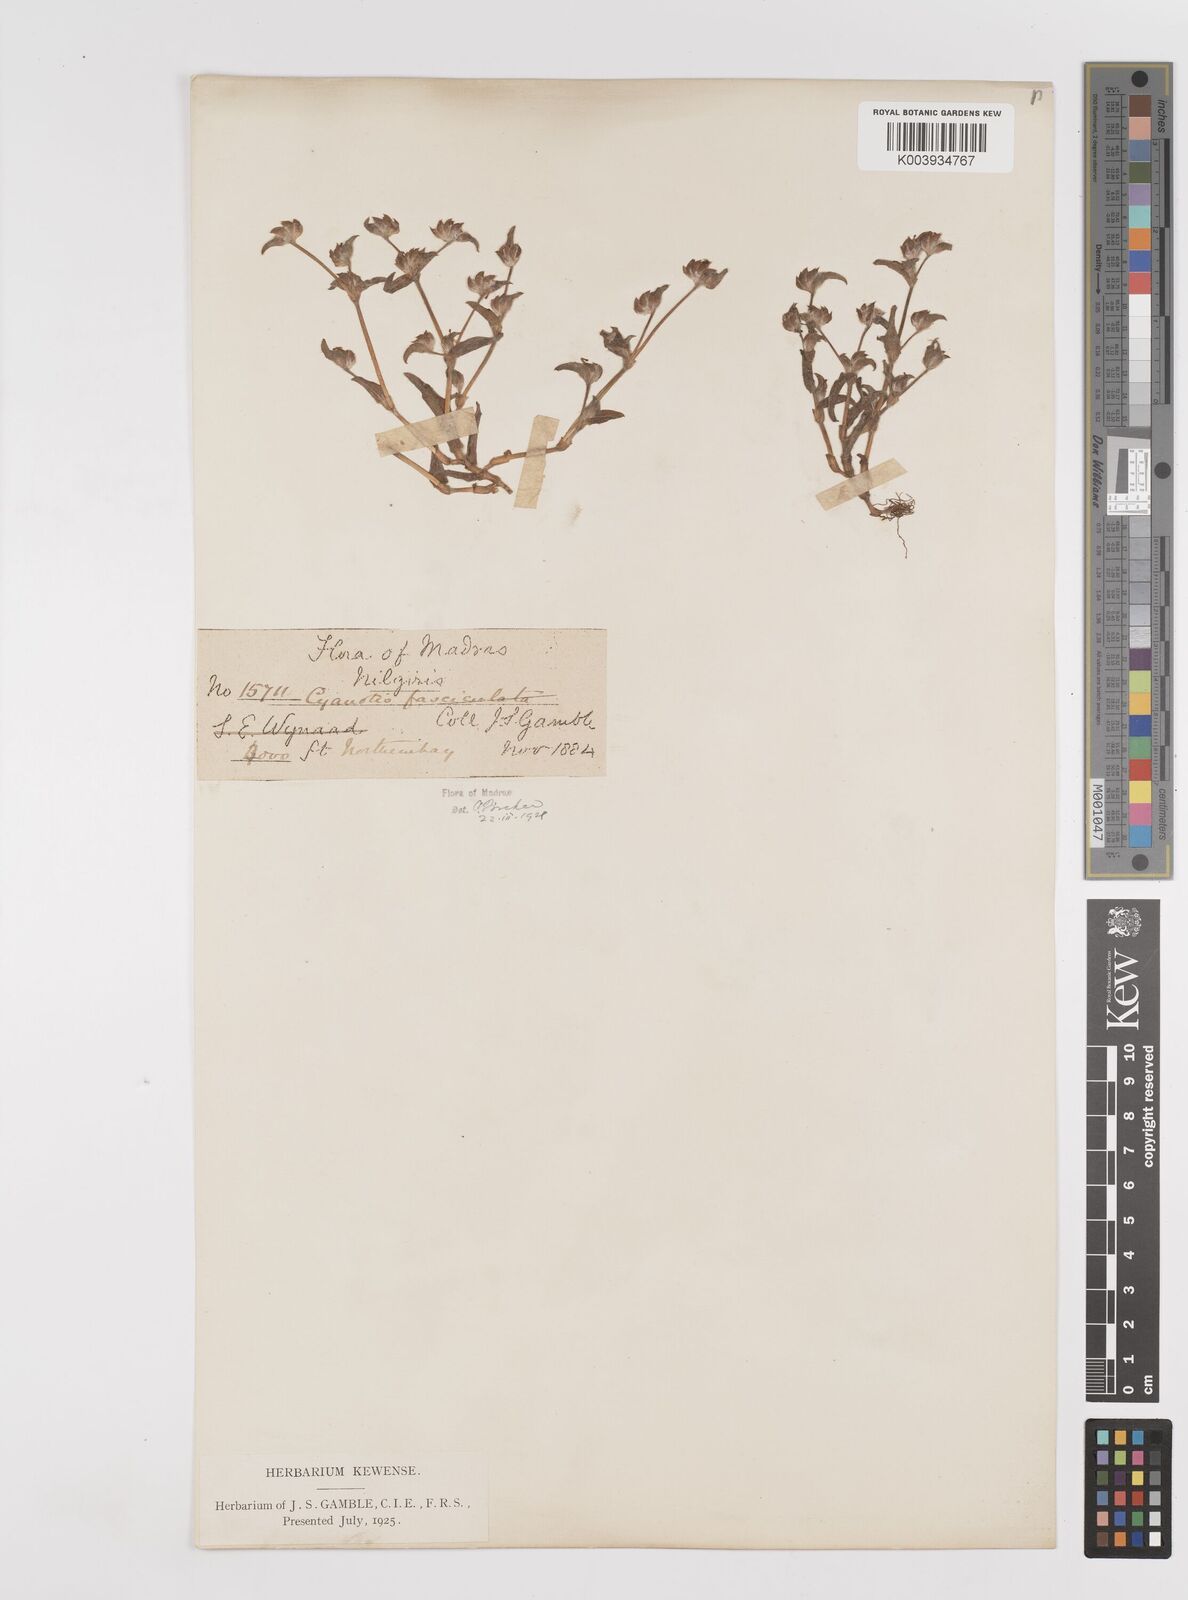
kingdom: Plantae
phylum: Tracheophyta
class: Liliopsida
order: Commelinales
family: Commelinaceae
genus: Cyanotis
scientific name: Cyanotis fasciculata
